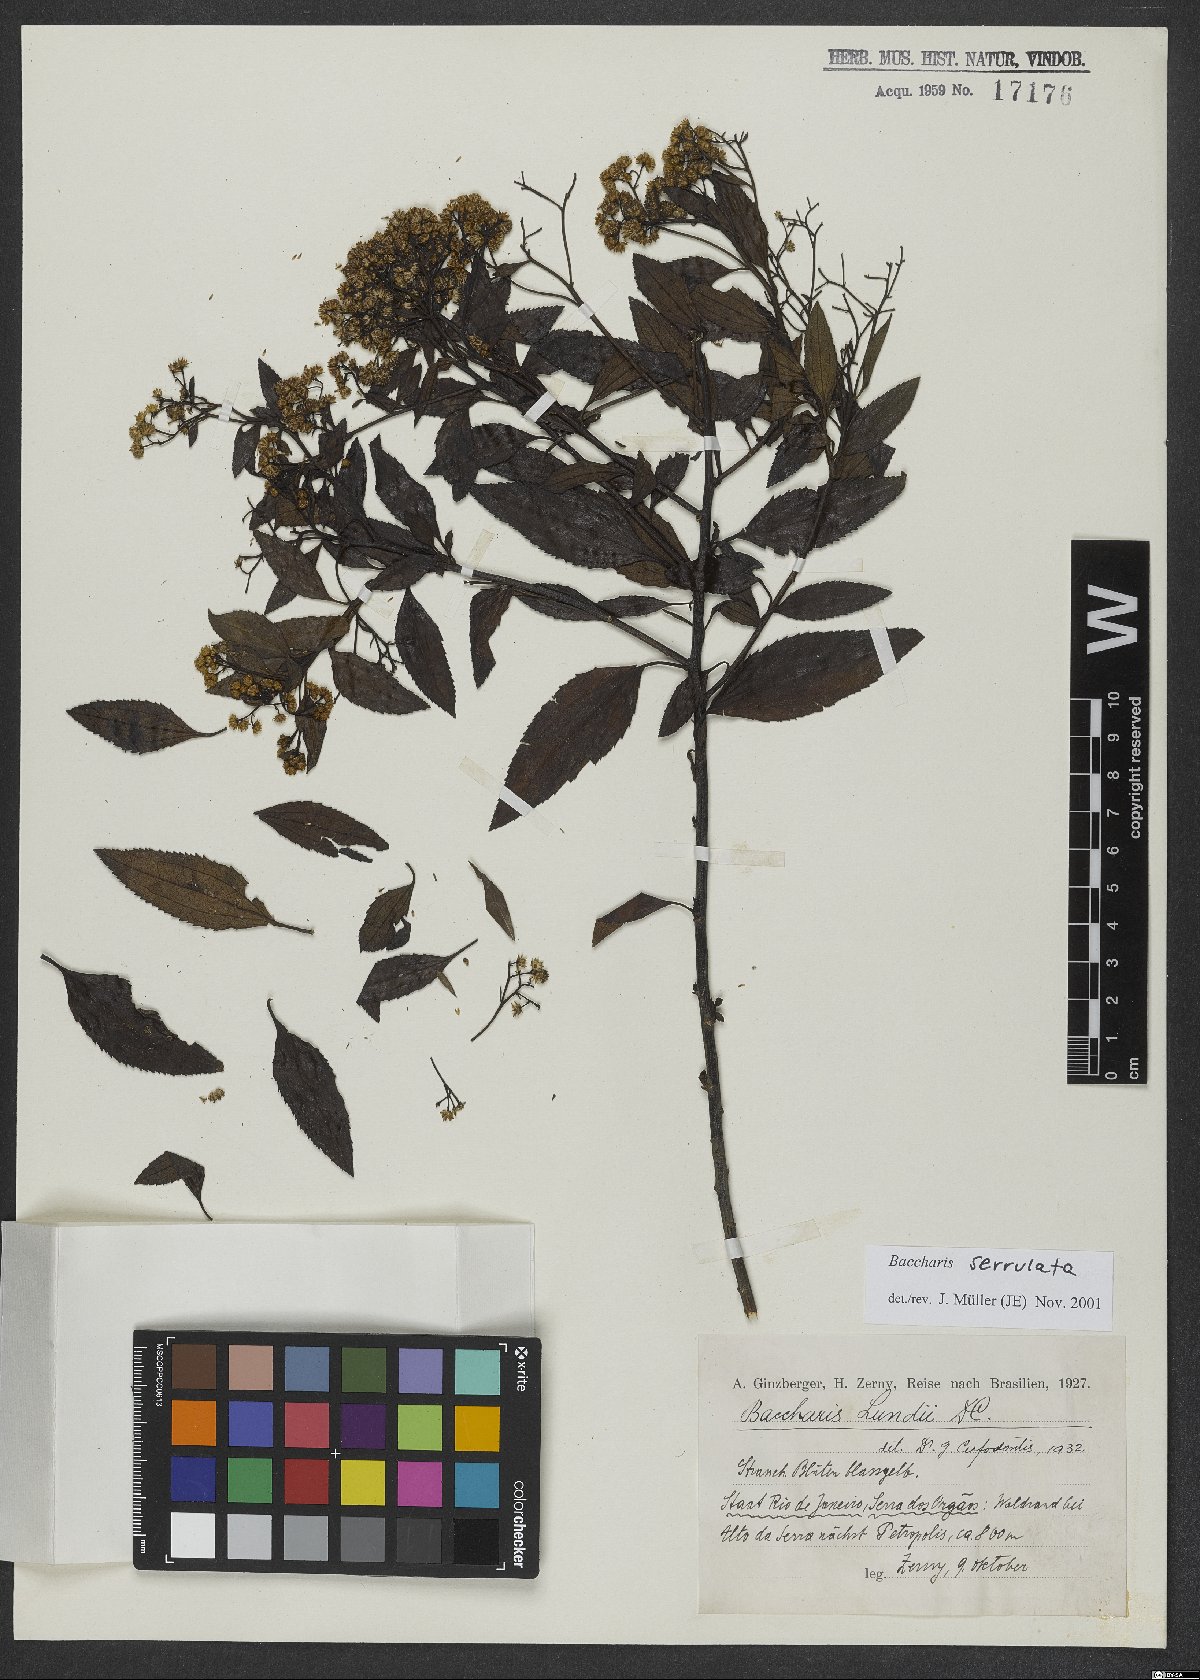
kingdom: Plantae
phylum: Tracheophyta
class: Magnoliopsida
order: Asterales
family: Asteraceae
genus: Archibaccharis
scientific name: Archibaccharis vulneraria
